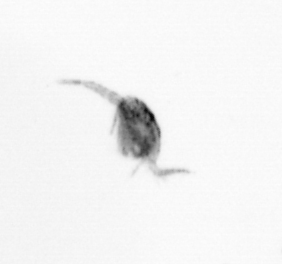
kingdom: Animalia
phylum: Arthropoda
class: Copepoda
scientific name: Copepoda
